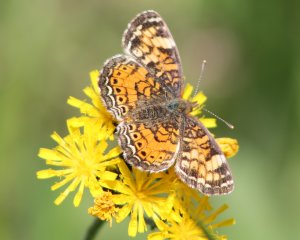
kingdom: Animalia
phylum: Arthropoda
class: Insecta
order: Lepidoptera
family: Nymphalidae
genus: Phyciodes
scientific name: Phyciodes tharos
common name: Pearl Crescent
